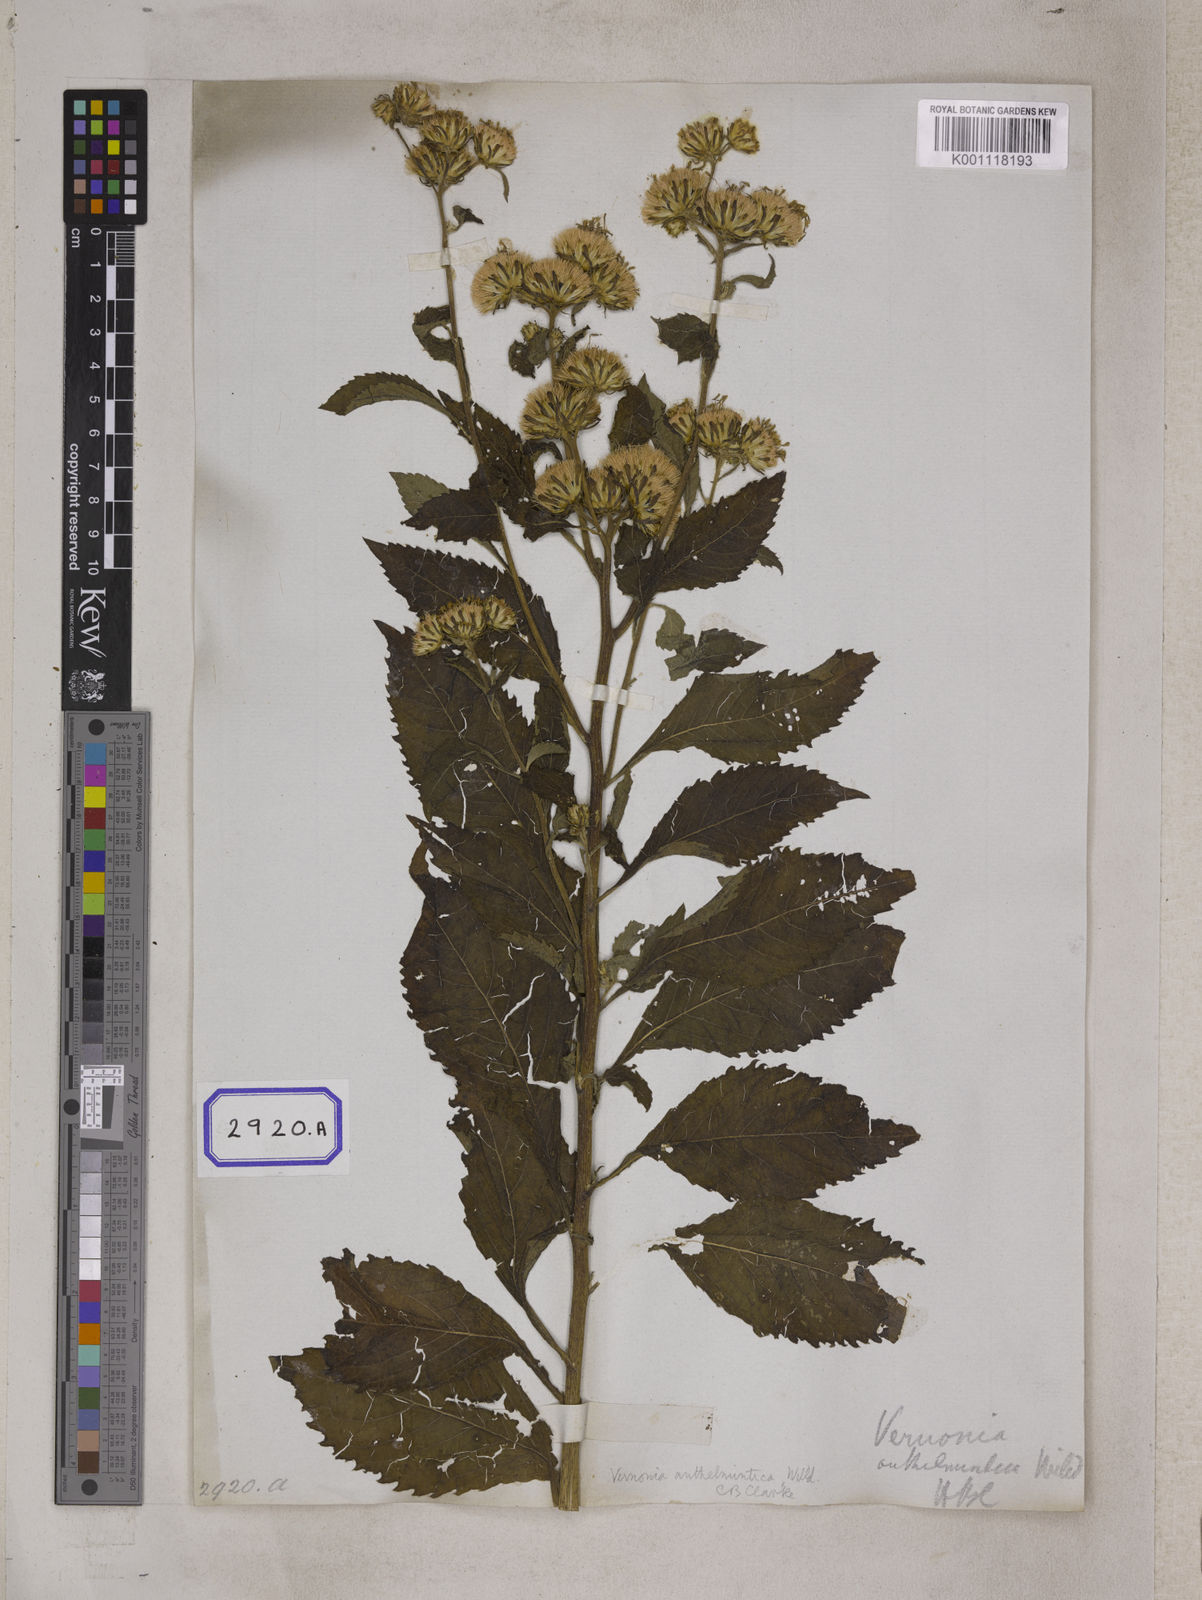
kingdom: Plantae
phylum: Tracheophyta
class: Magnoliopsida
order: Asterales
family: Asteraceae
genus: Baccharoides
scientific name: Baccharoides anthelmintica
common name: Kinka-oil
